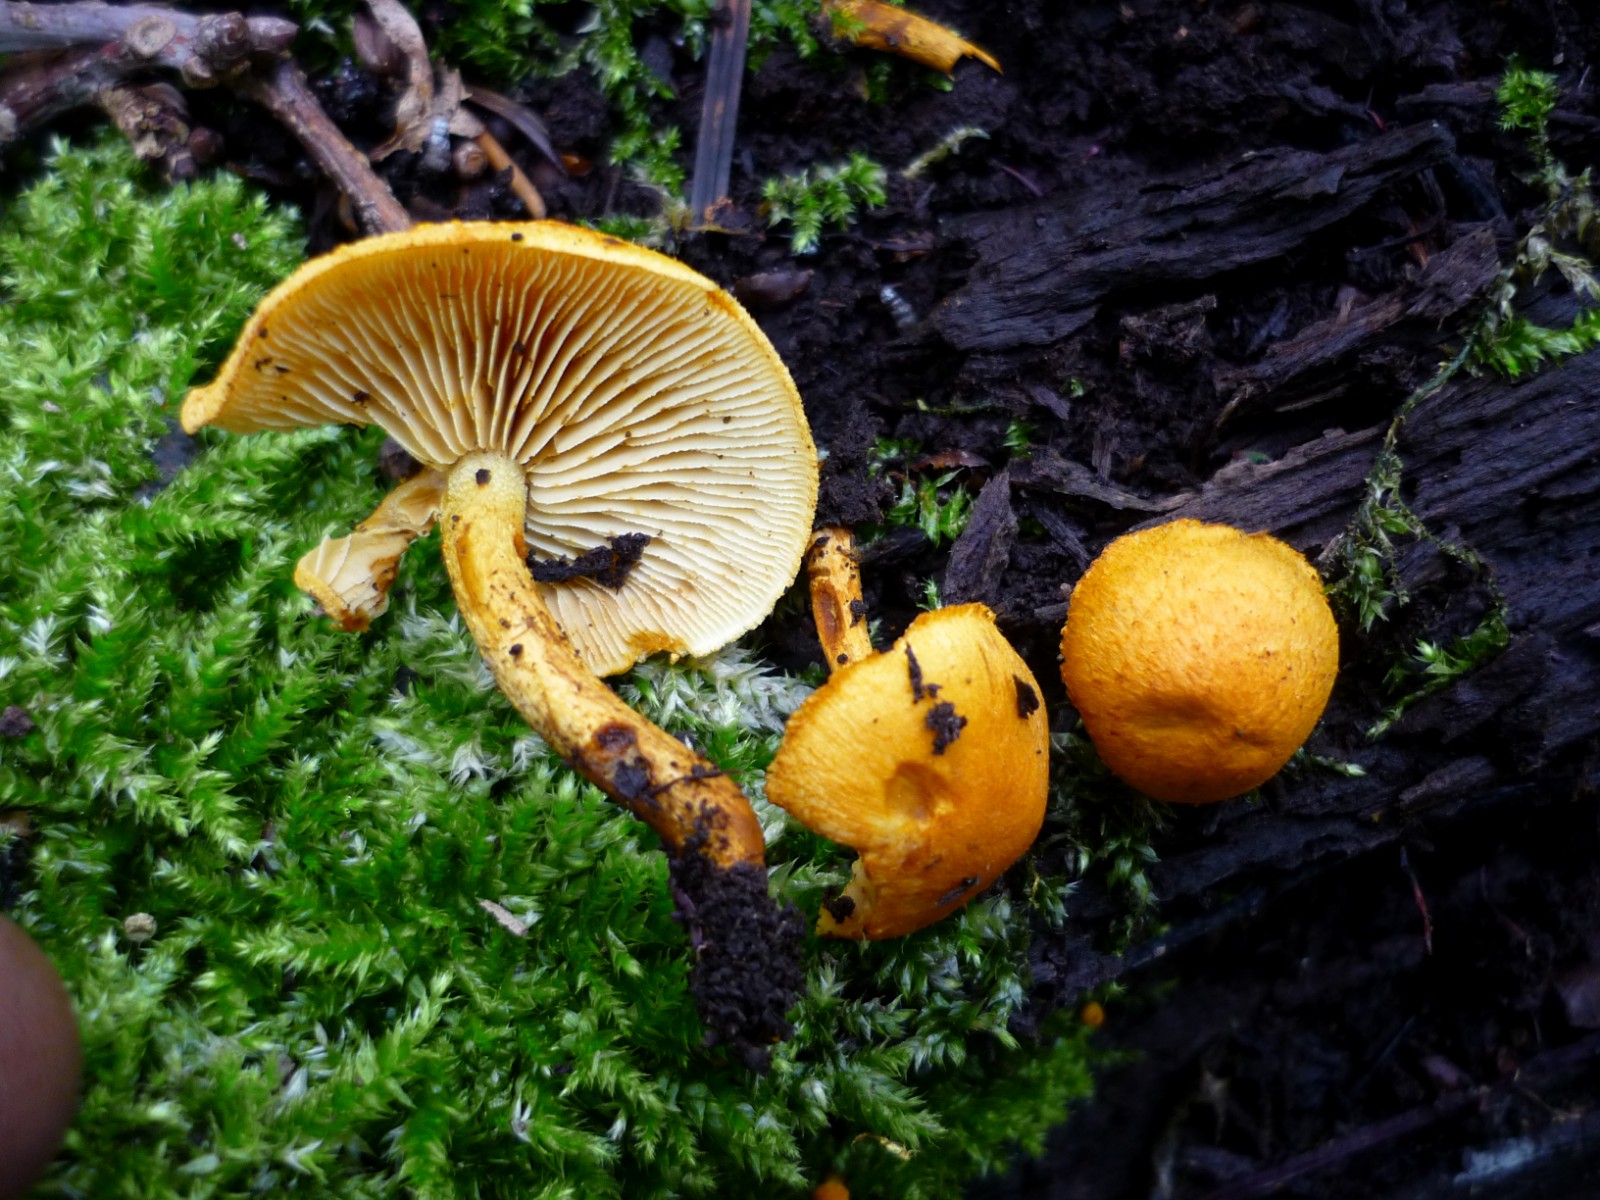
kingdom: Fungi
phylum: Basidiomycota
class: Agaricomycetes
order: Agaricales
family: Strophariaceae
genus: Pholiota
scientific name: Pholiota tuberculosa
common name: finskællet skælhat
